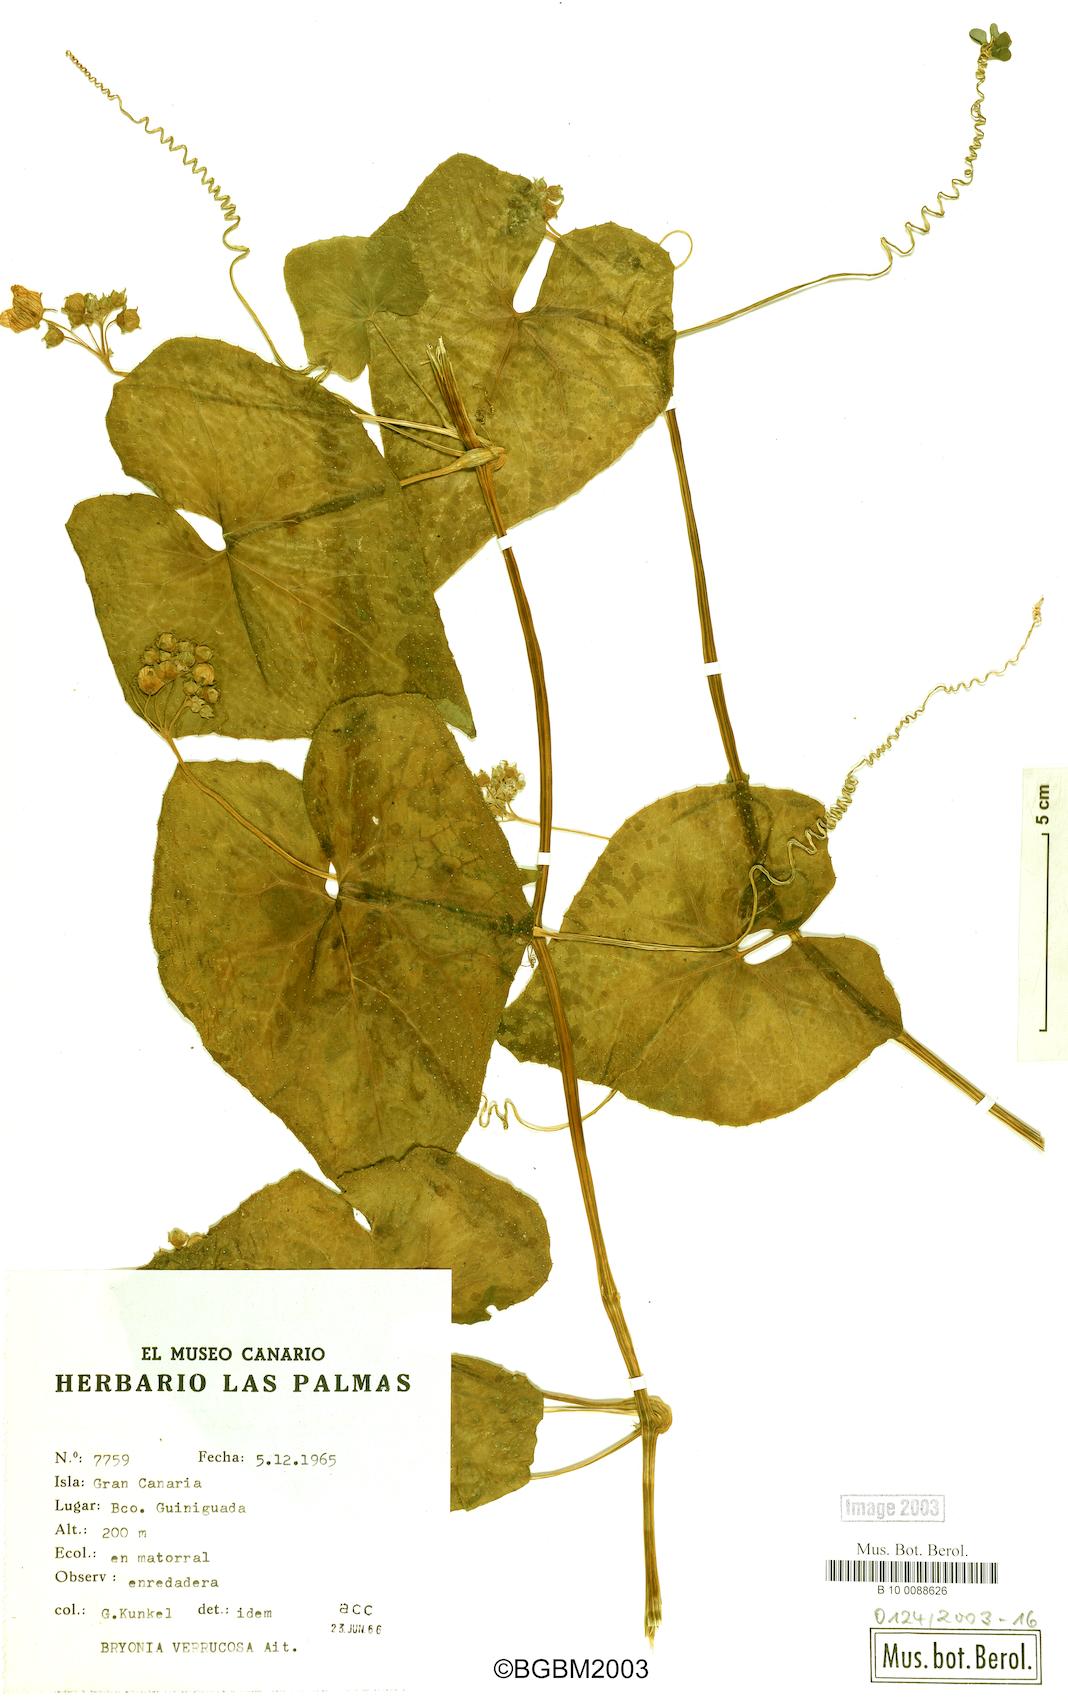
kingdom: Plantae
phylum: Tracheophyta
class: Magnoliopsida
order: Cucurbitales
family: Cucurbitaceae
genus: Bryonia
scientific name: Bryonia verrucosa
